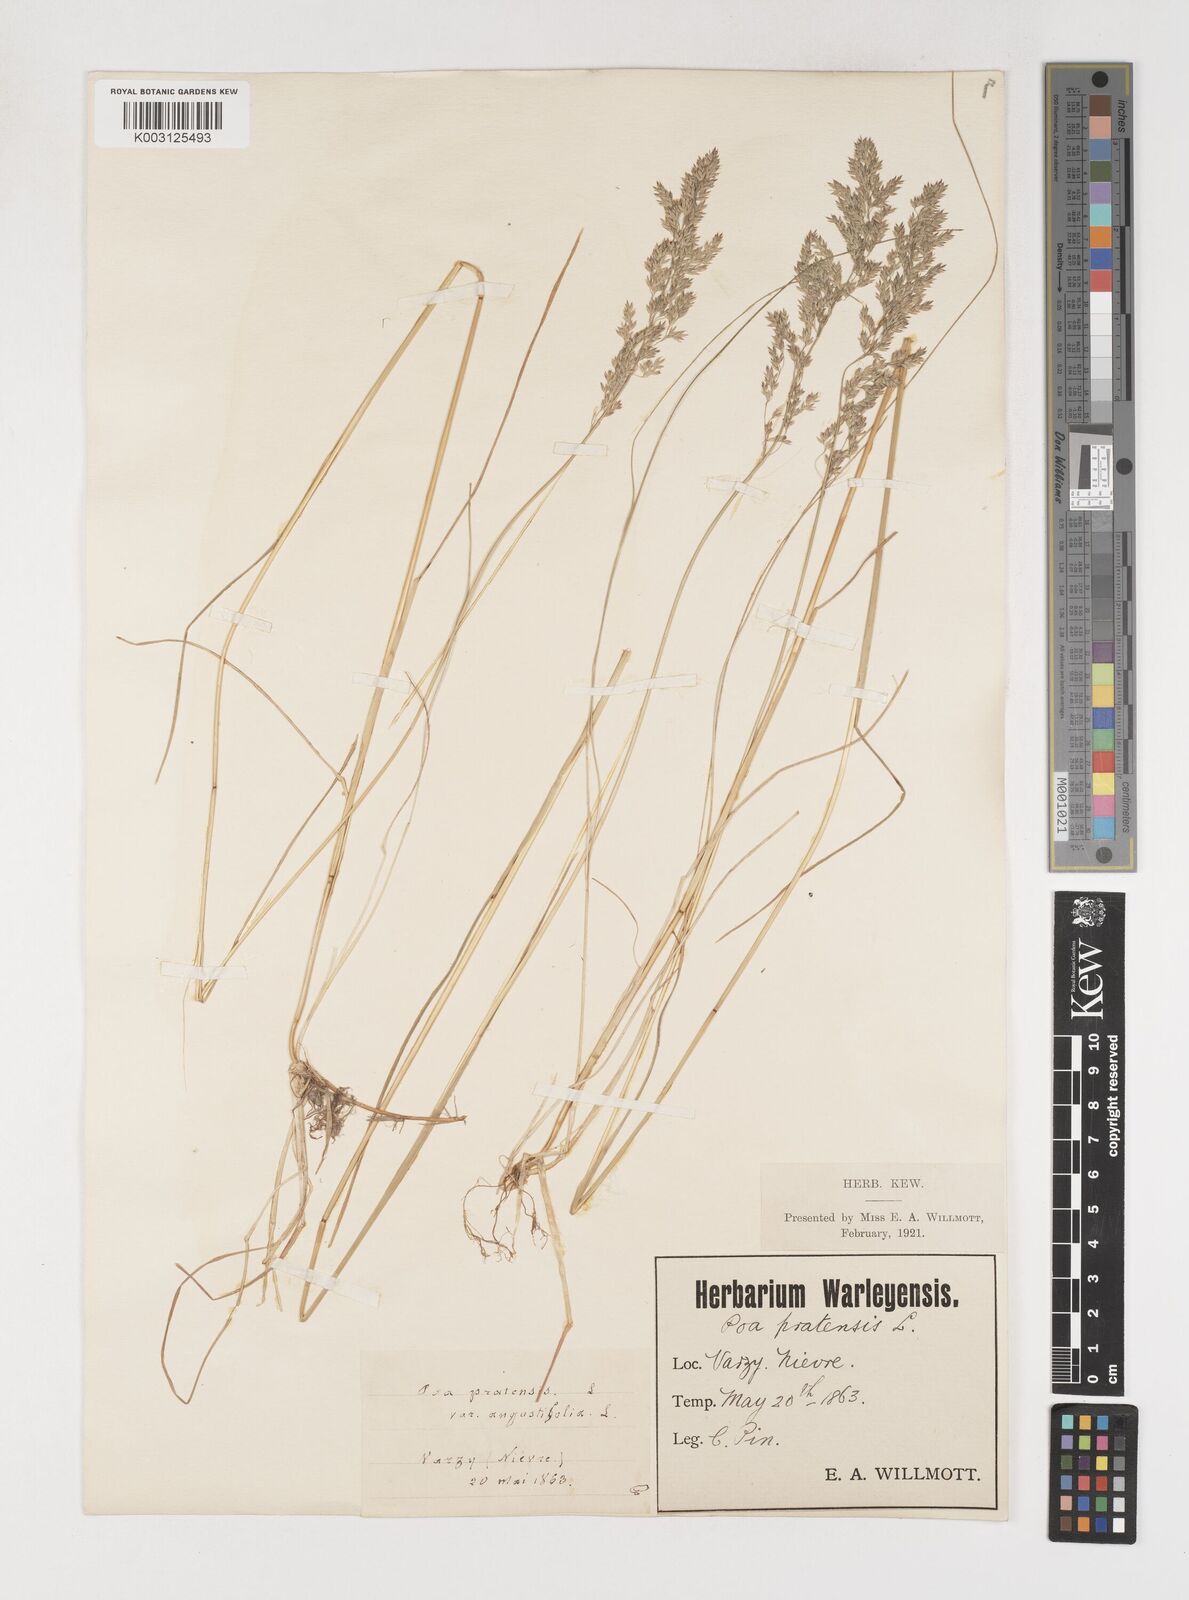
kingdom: Plantae
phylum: Tracheophyta
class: Liliopsida
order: Poales
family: Poaceae
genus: Poa
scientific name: Poa angustifolia
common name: Narrow-leaved meadow-grass
